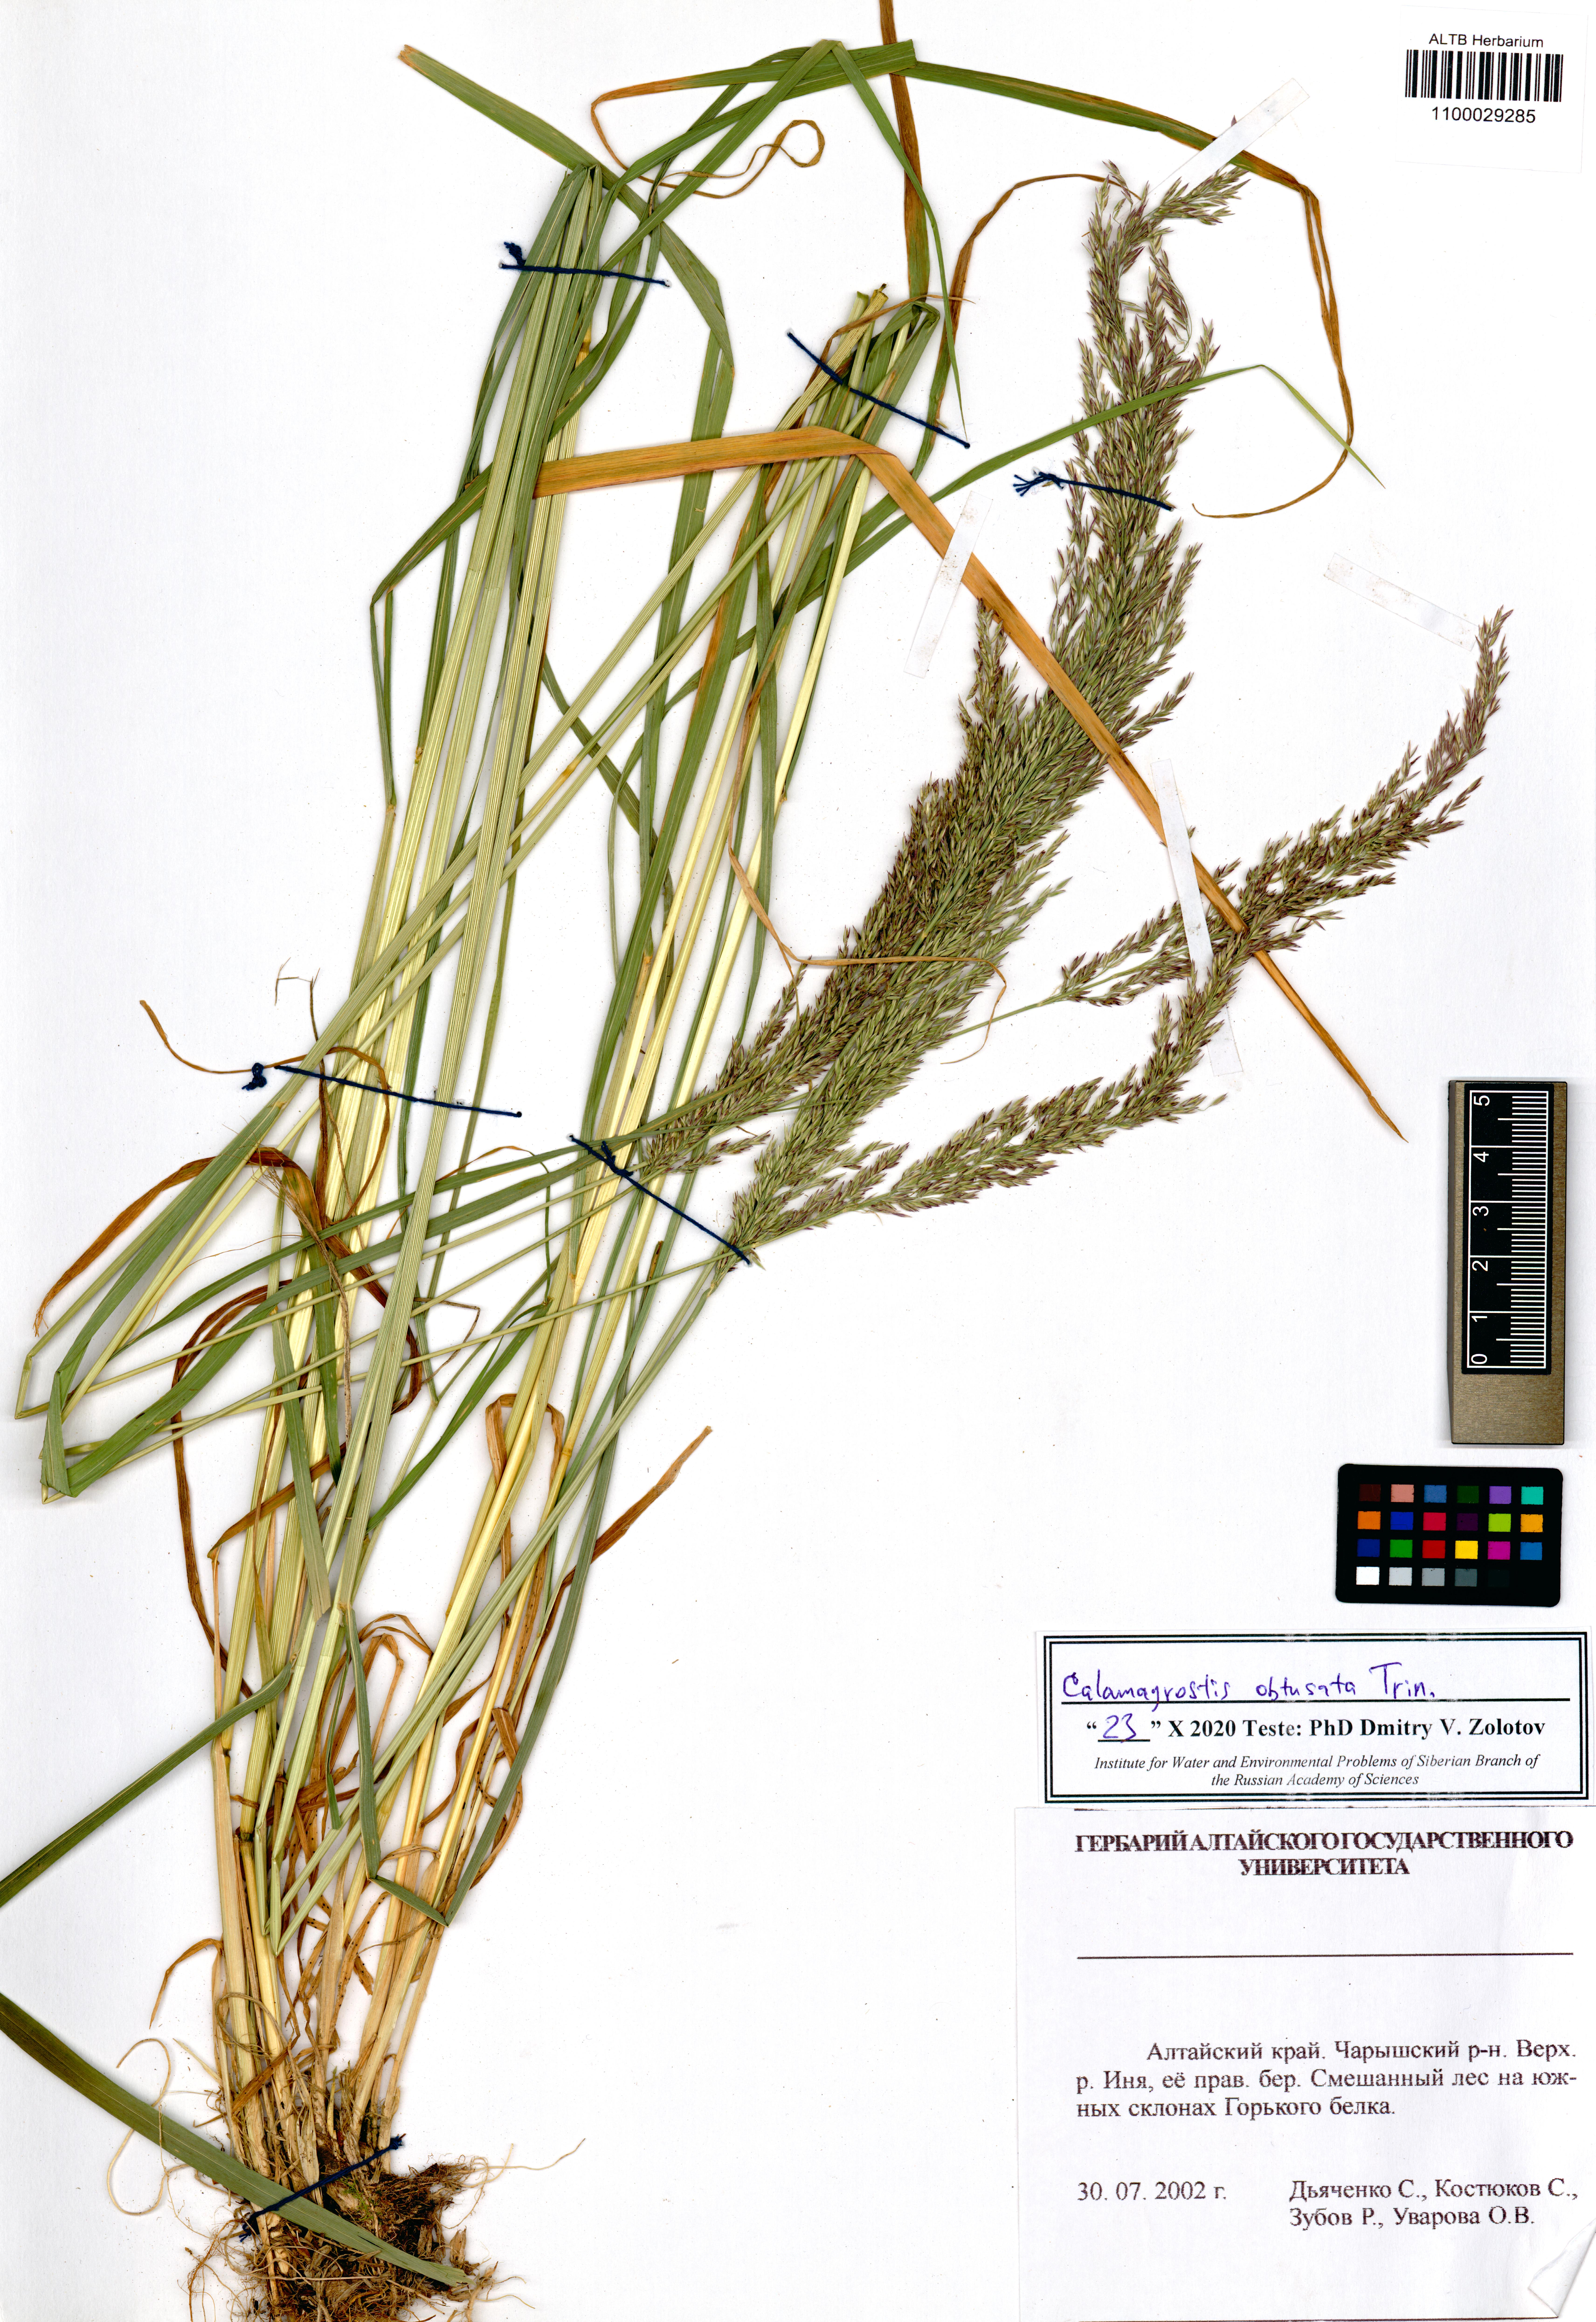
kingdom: Plantae
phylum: Tracheophyta
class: Liliopsida
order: Poales
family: Poaceae
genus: Calamagrostis
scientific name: Calamagrostis obtusata
